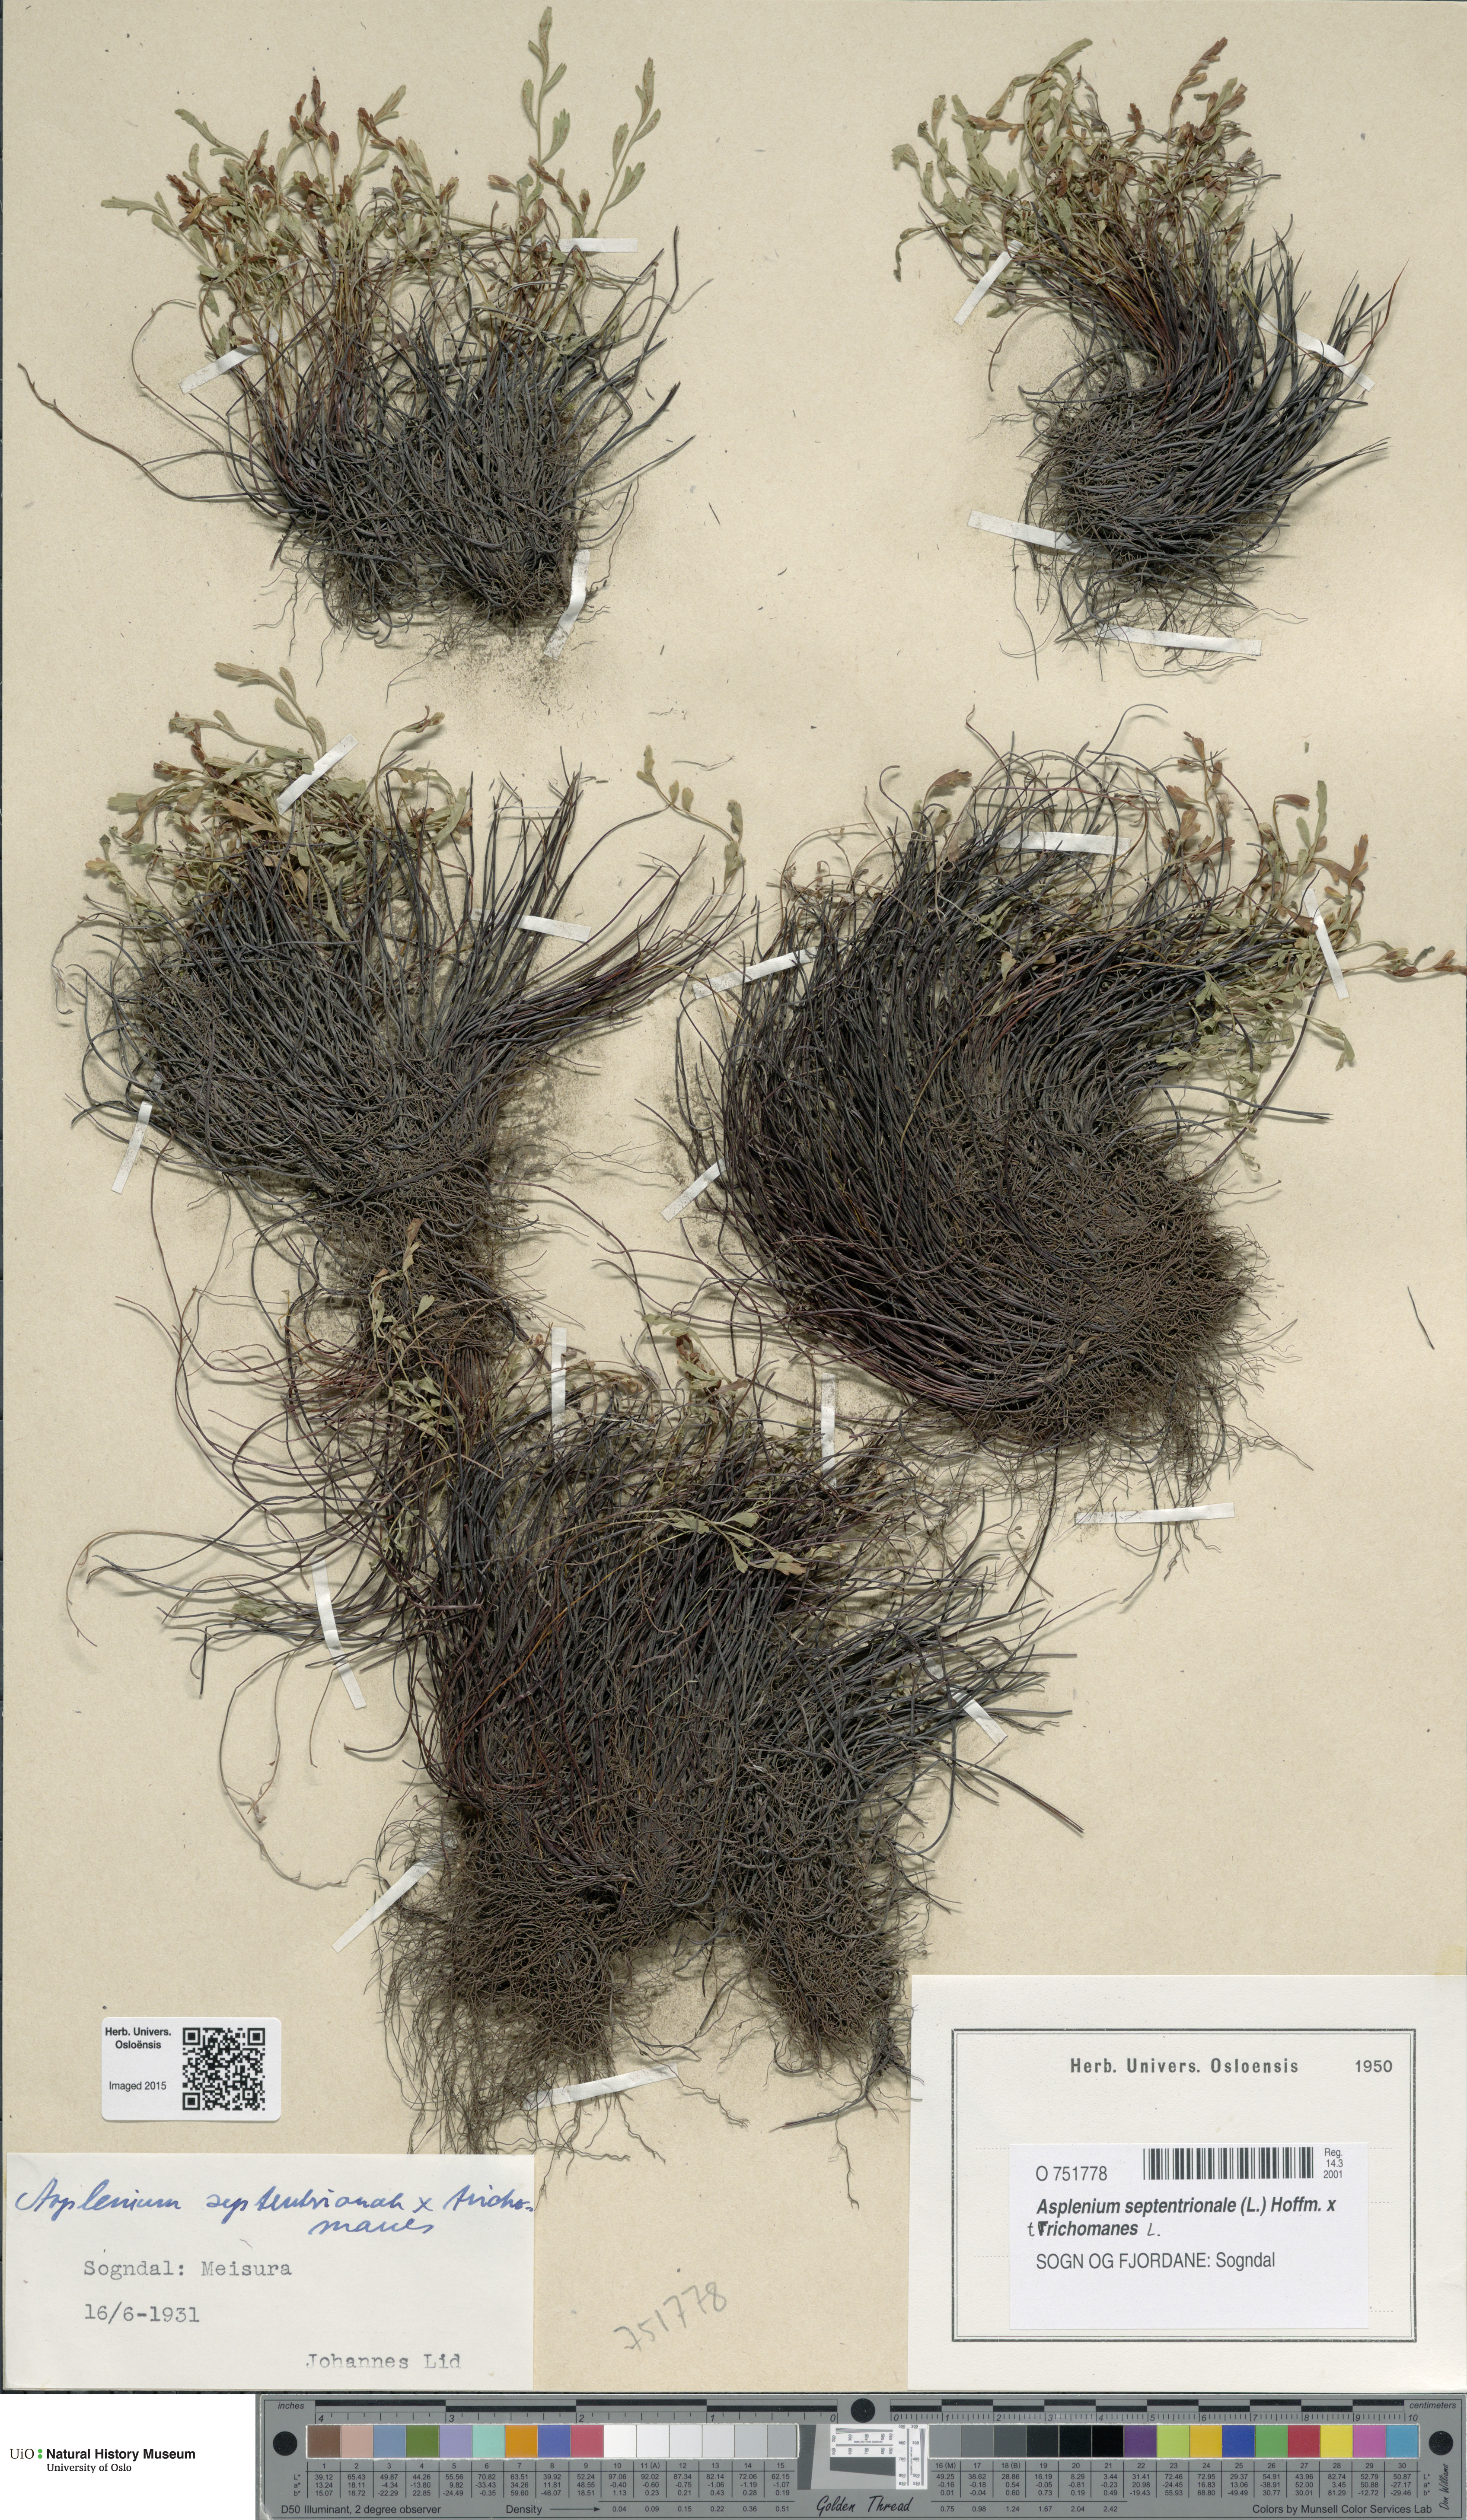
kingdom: Plantae
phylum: Tracheophyta
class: Polypodiopsida
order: Polypodiales
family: Aspleniaceae
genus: Asplenium
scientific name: Asplenium
